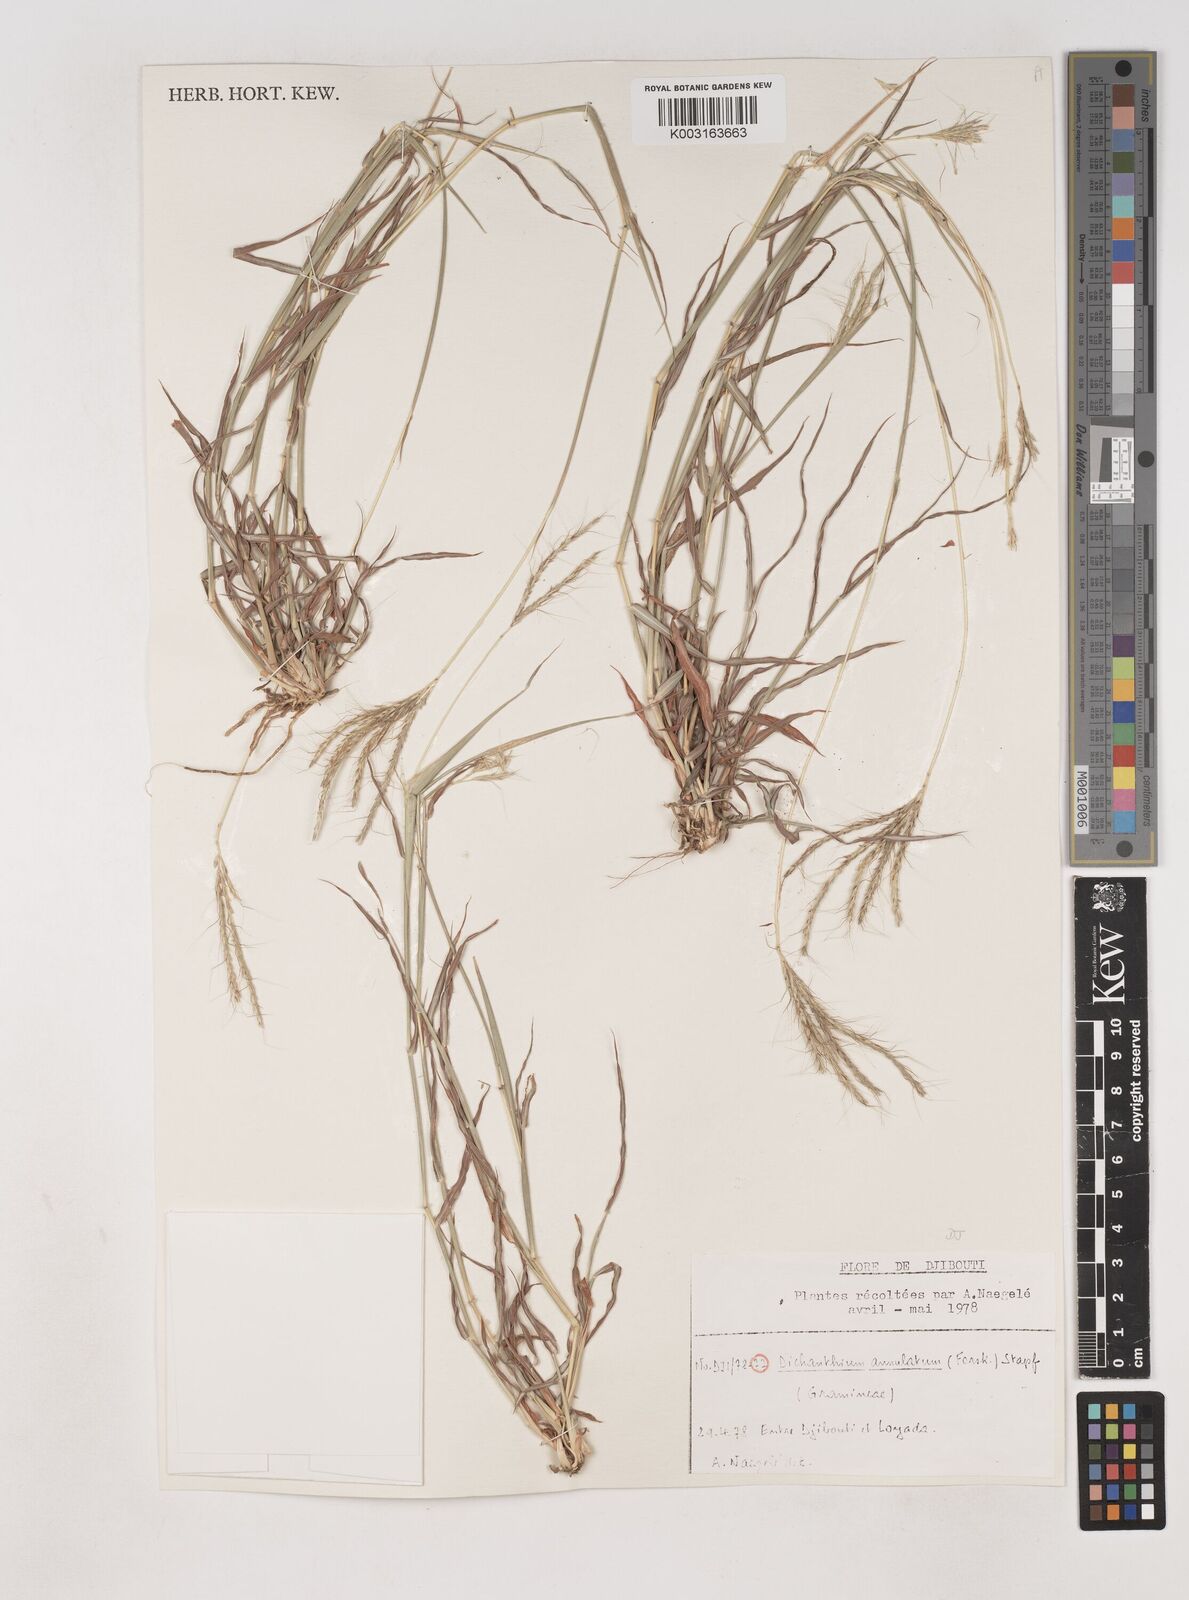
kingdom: Plantae
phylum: Tracheophyta
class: Liliopsida
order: Poales
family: Poaceae
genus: Dichanthium
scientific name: Dichanthium annulatum
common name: Kleberg's bluestem
